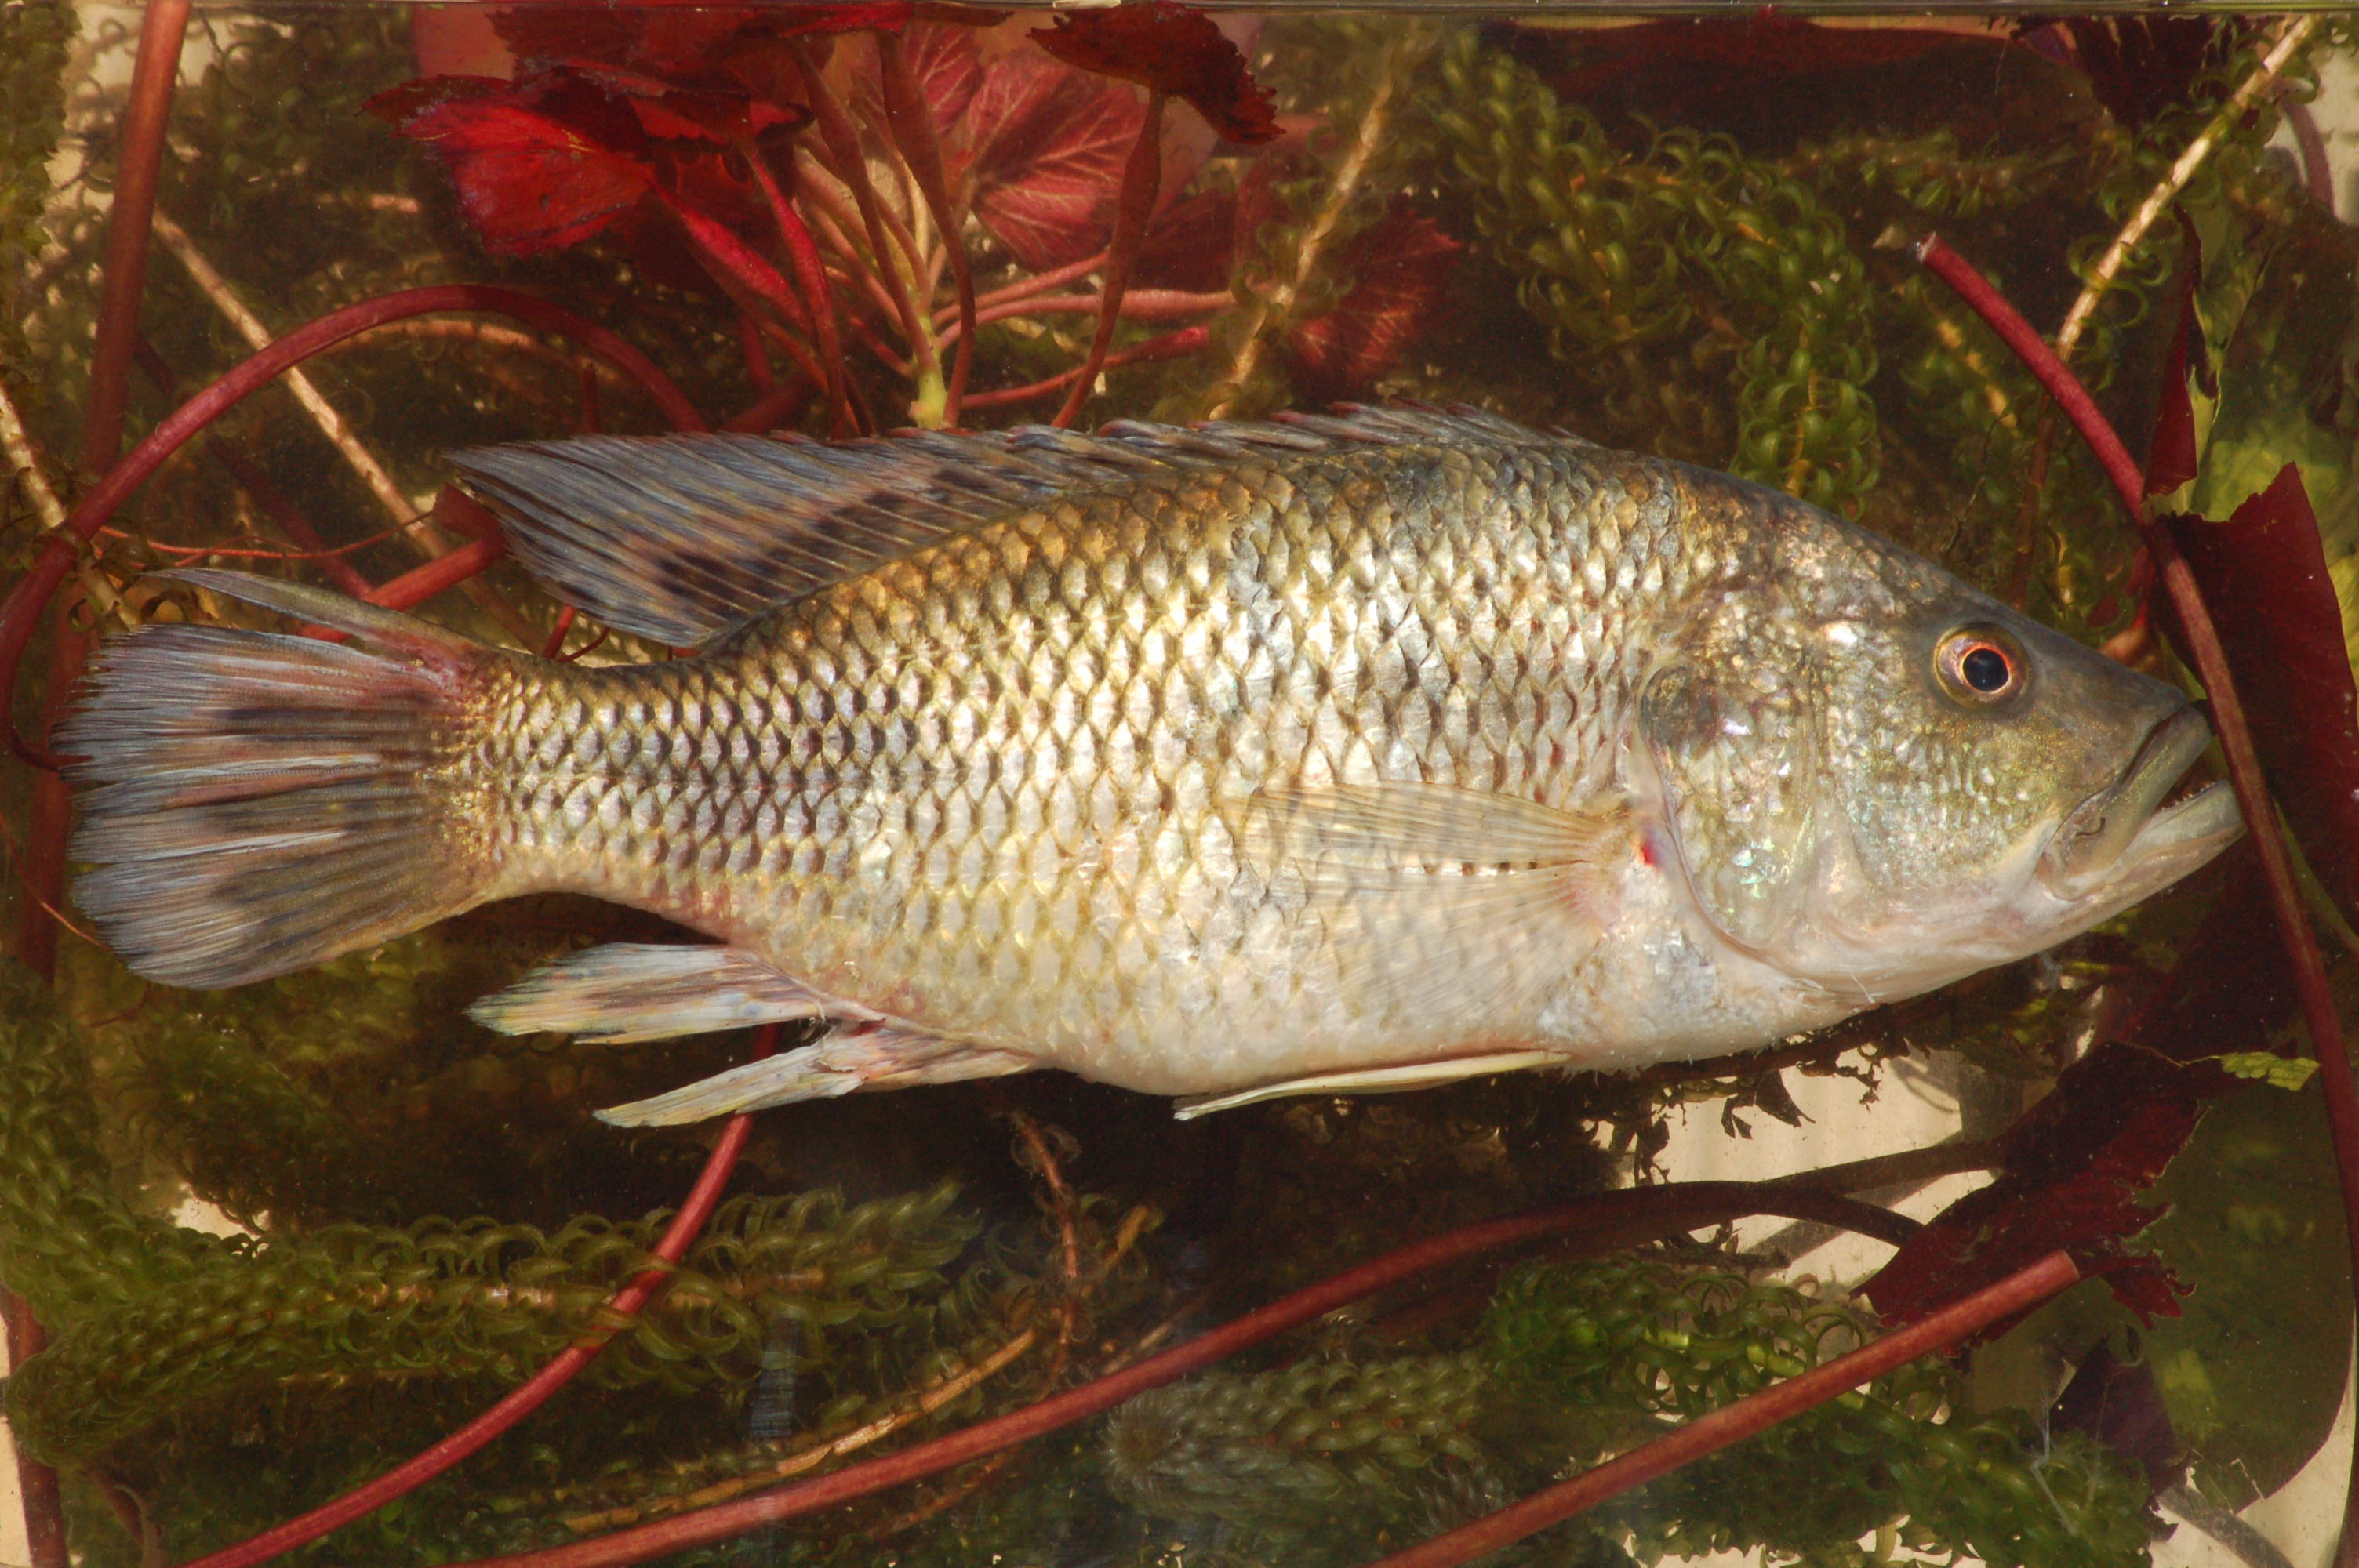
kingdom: Animalia
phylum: Chordata
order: Perciformes
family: Cichlidae
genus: Serranochromis
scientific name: Serranochromis macrocephalus
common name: Purpleface largemouth
